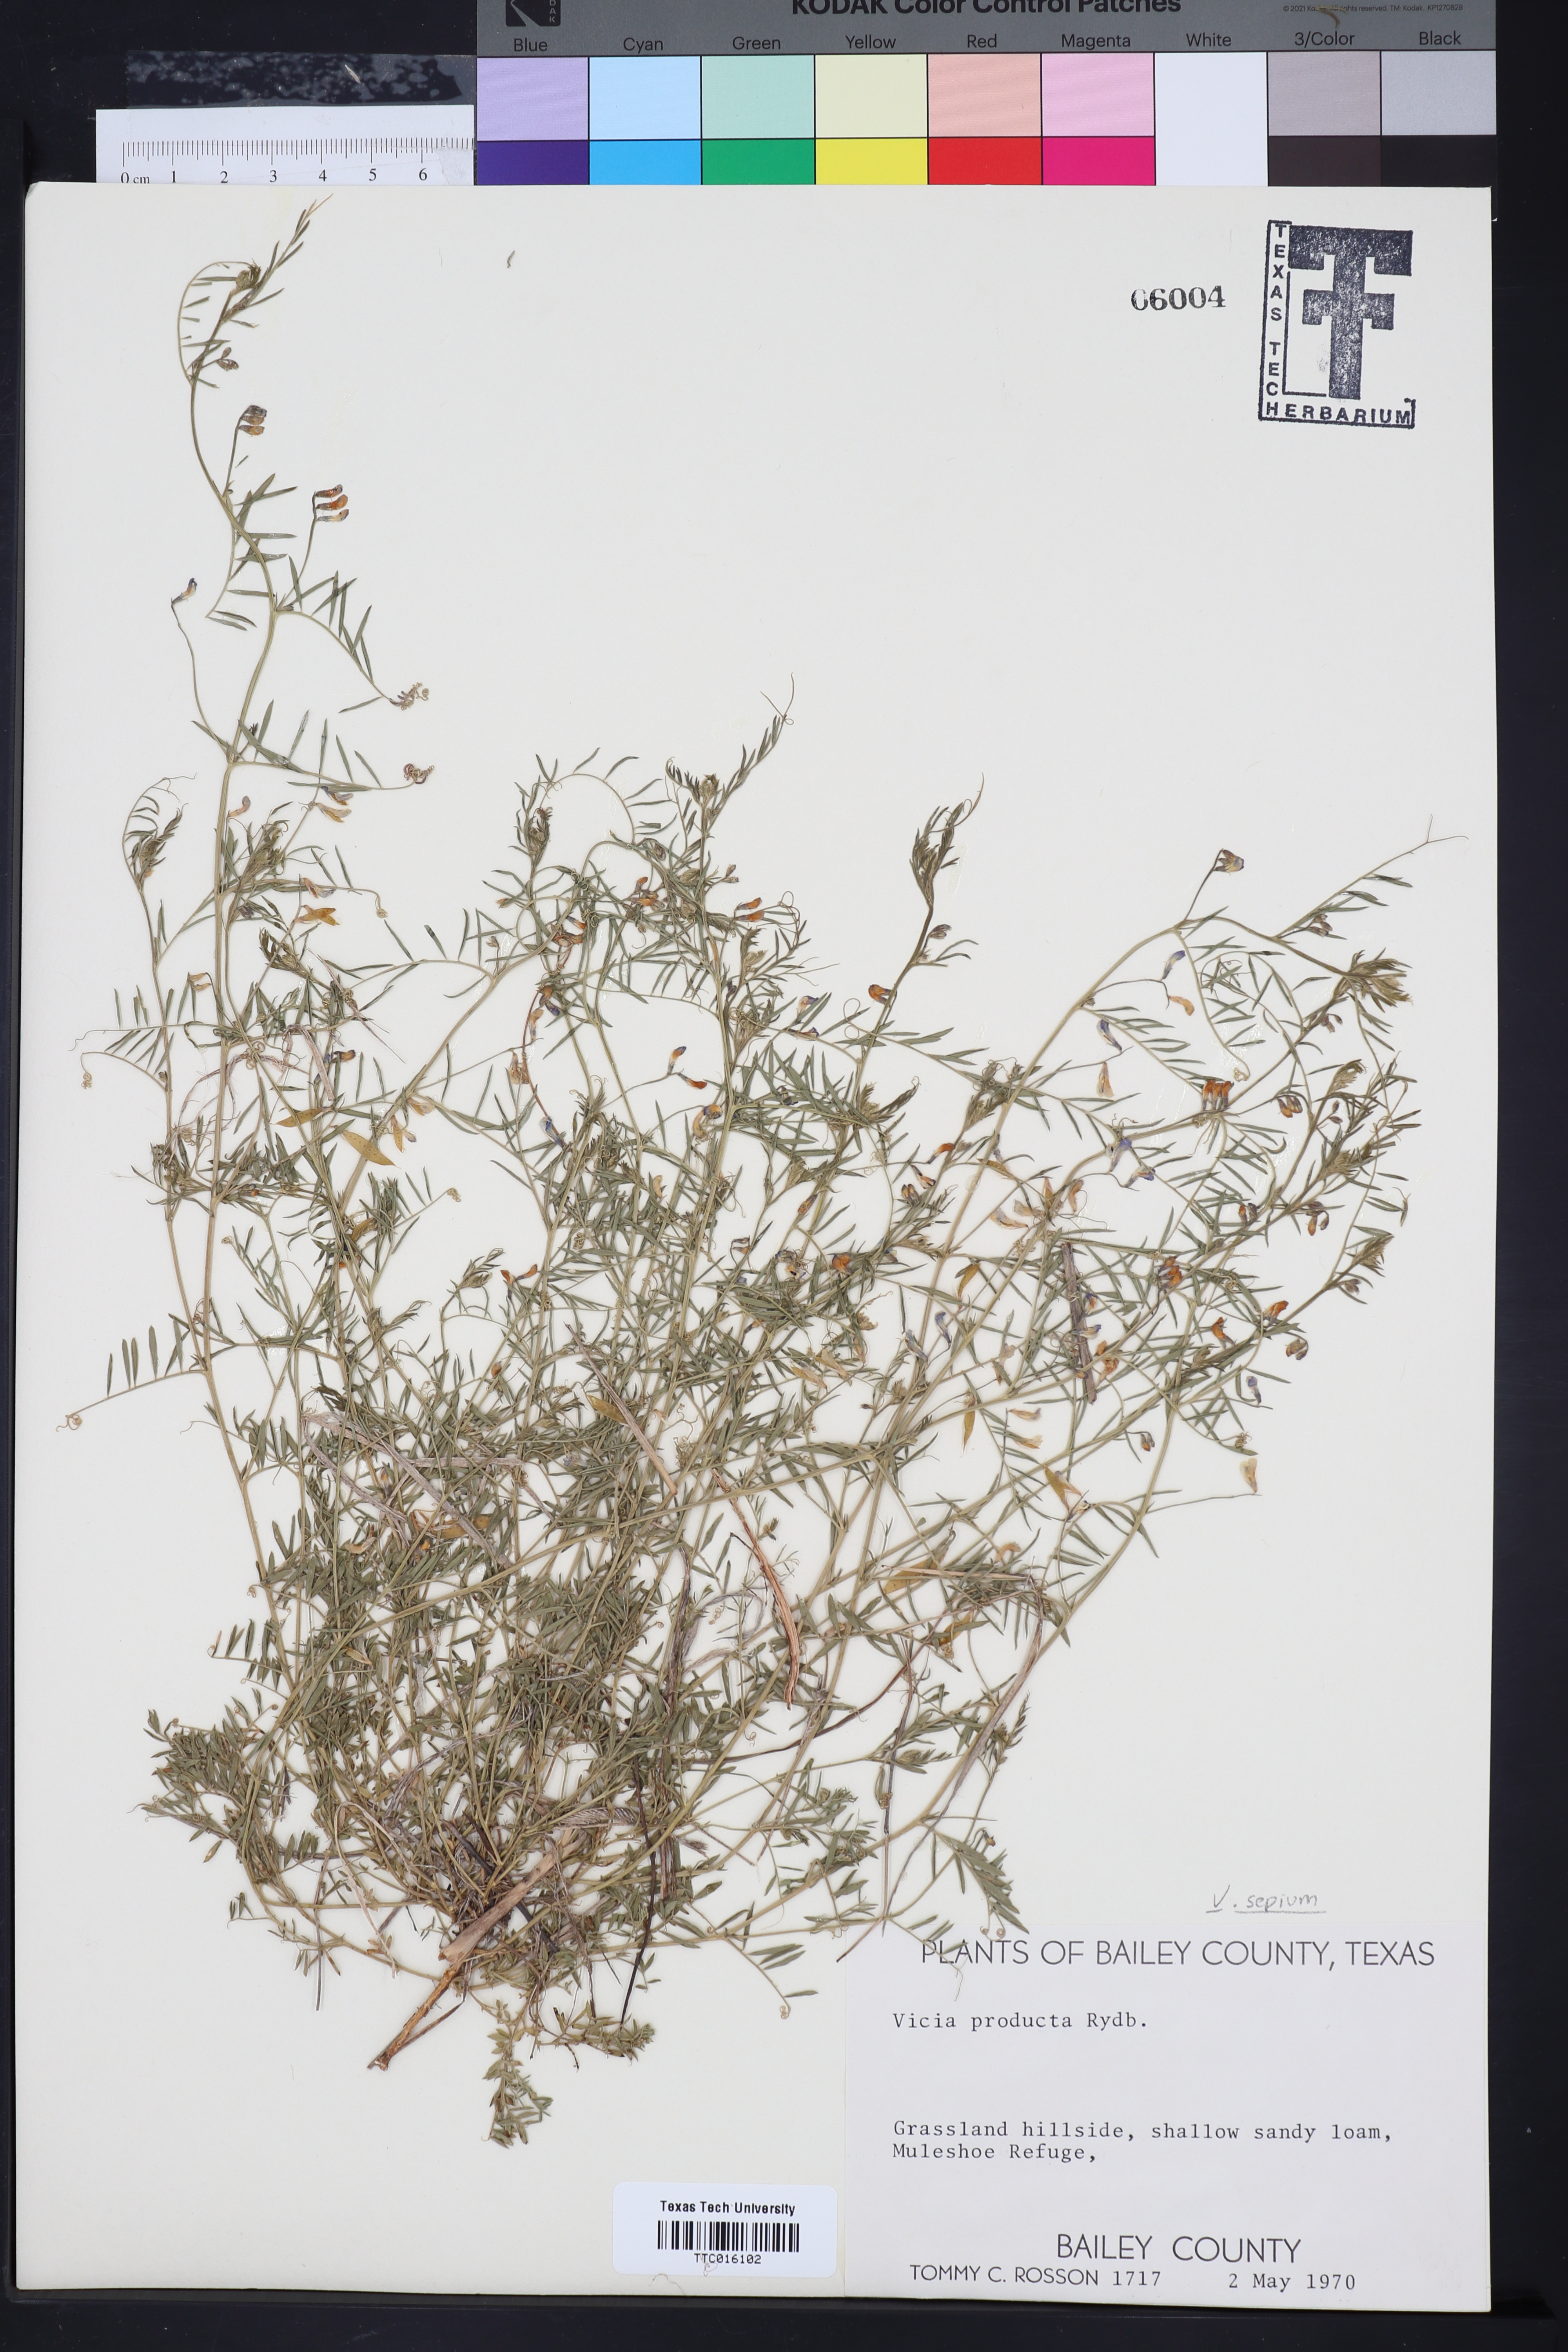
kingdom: Plantae
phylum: Tracheophyta
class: Magnoliopsida
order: Fabales
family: Fabaceae
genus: Vicia
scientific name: Vicia ludoviciana
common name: Louisiana vetch
